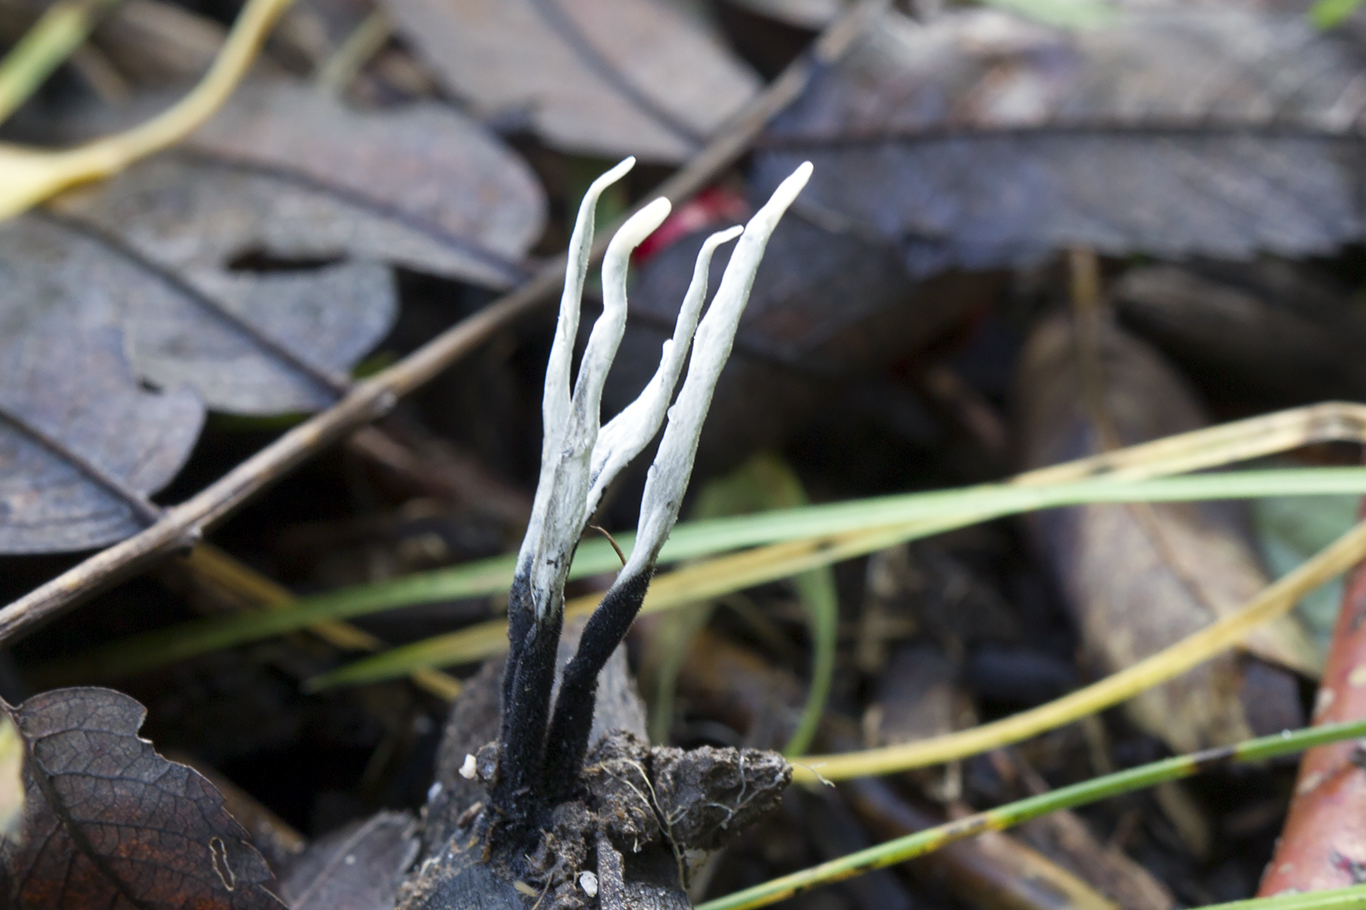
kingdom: Fungi
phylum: Ascomycota
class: Sordariomycetes
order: Xylariales
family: Xylariaceae
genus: Xylaria
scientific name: Xylaria hypoxylon
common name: grenet stødsvamp
